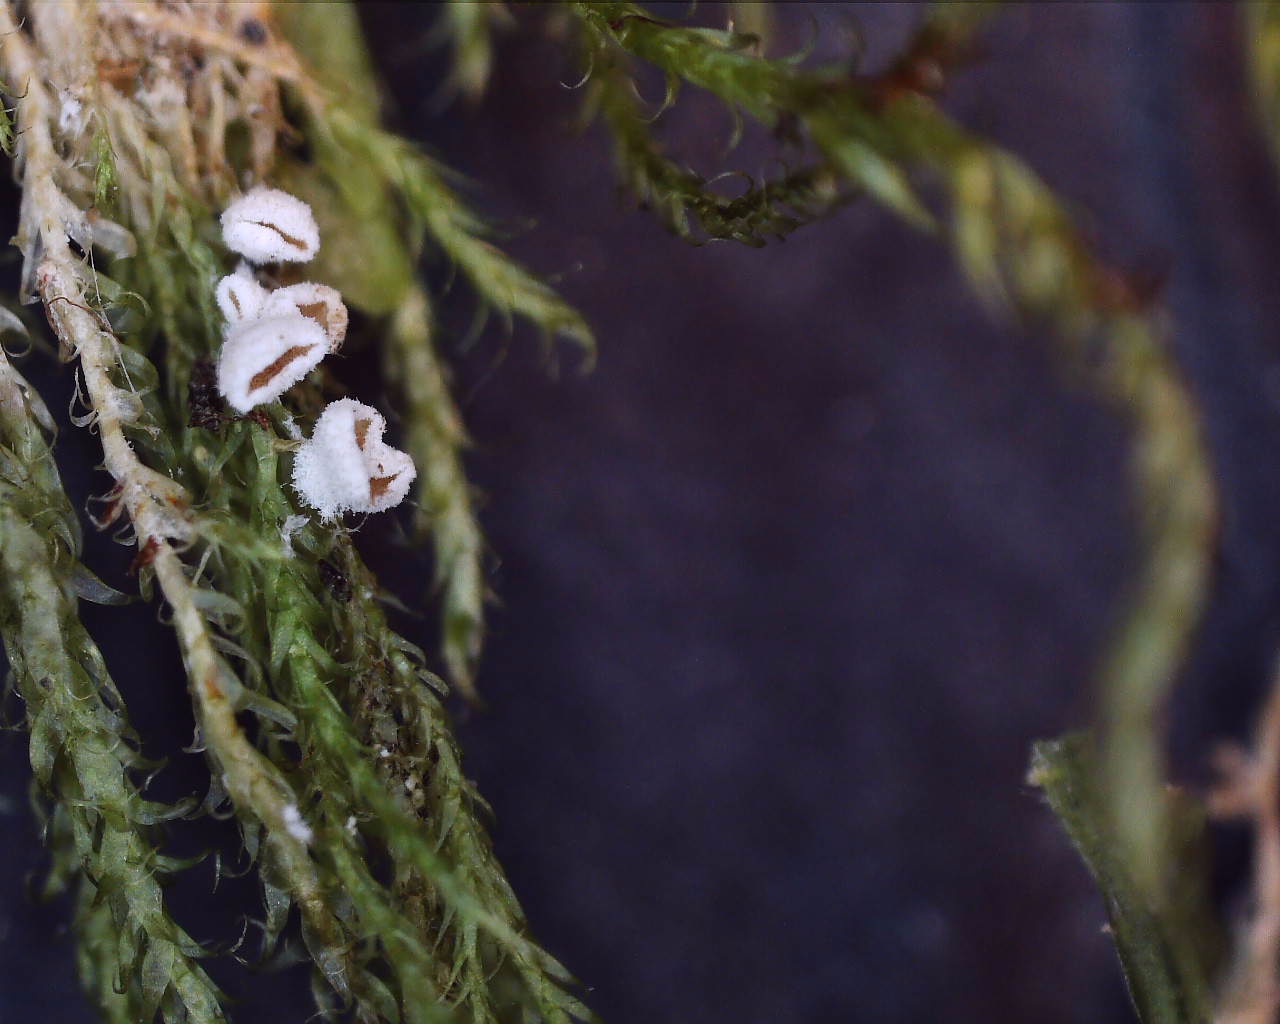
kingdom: Fungi
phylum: Basidiomycota
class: Agaricomycetes
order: Agaricales
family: Chromocyphellaceae
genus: Chromocyphella
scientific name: Chromocyphella muscicola
